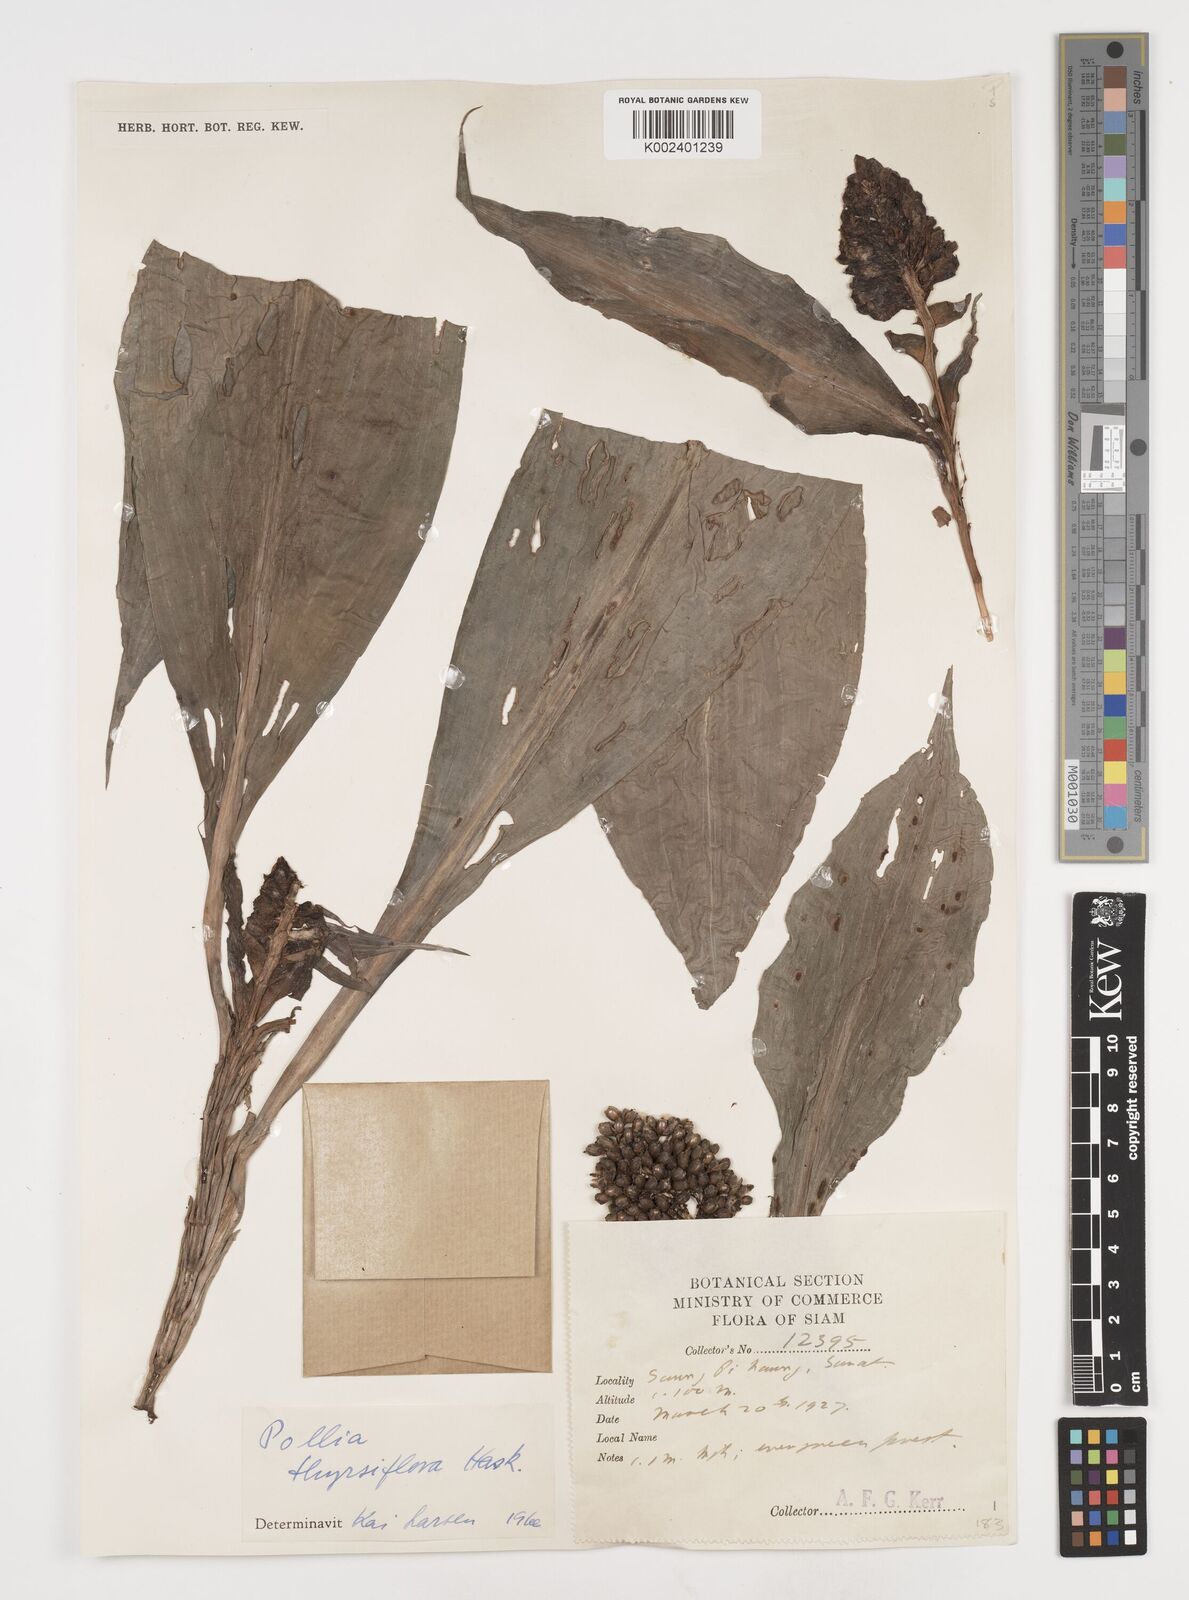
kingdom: Plantae
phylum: Tracheophyta
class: Liliopsida
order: Commelinales
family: Commelinaceae
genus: Pollia
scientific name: Pollia thyrsiflora
